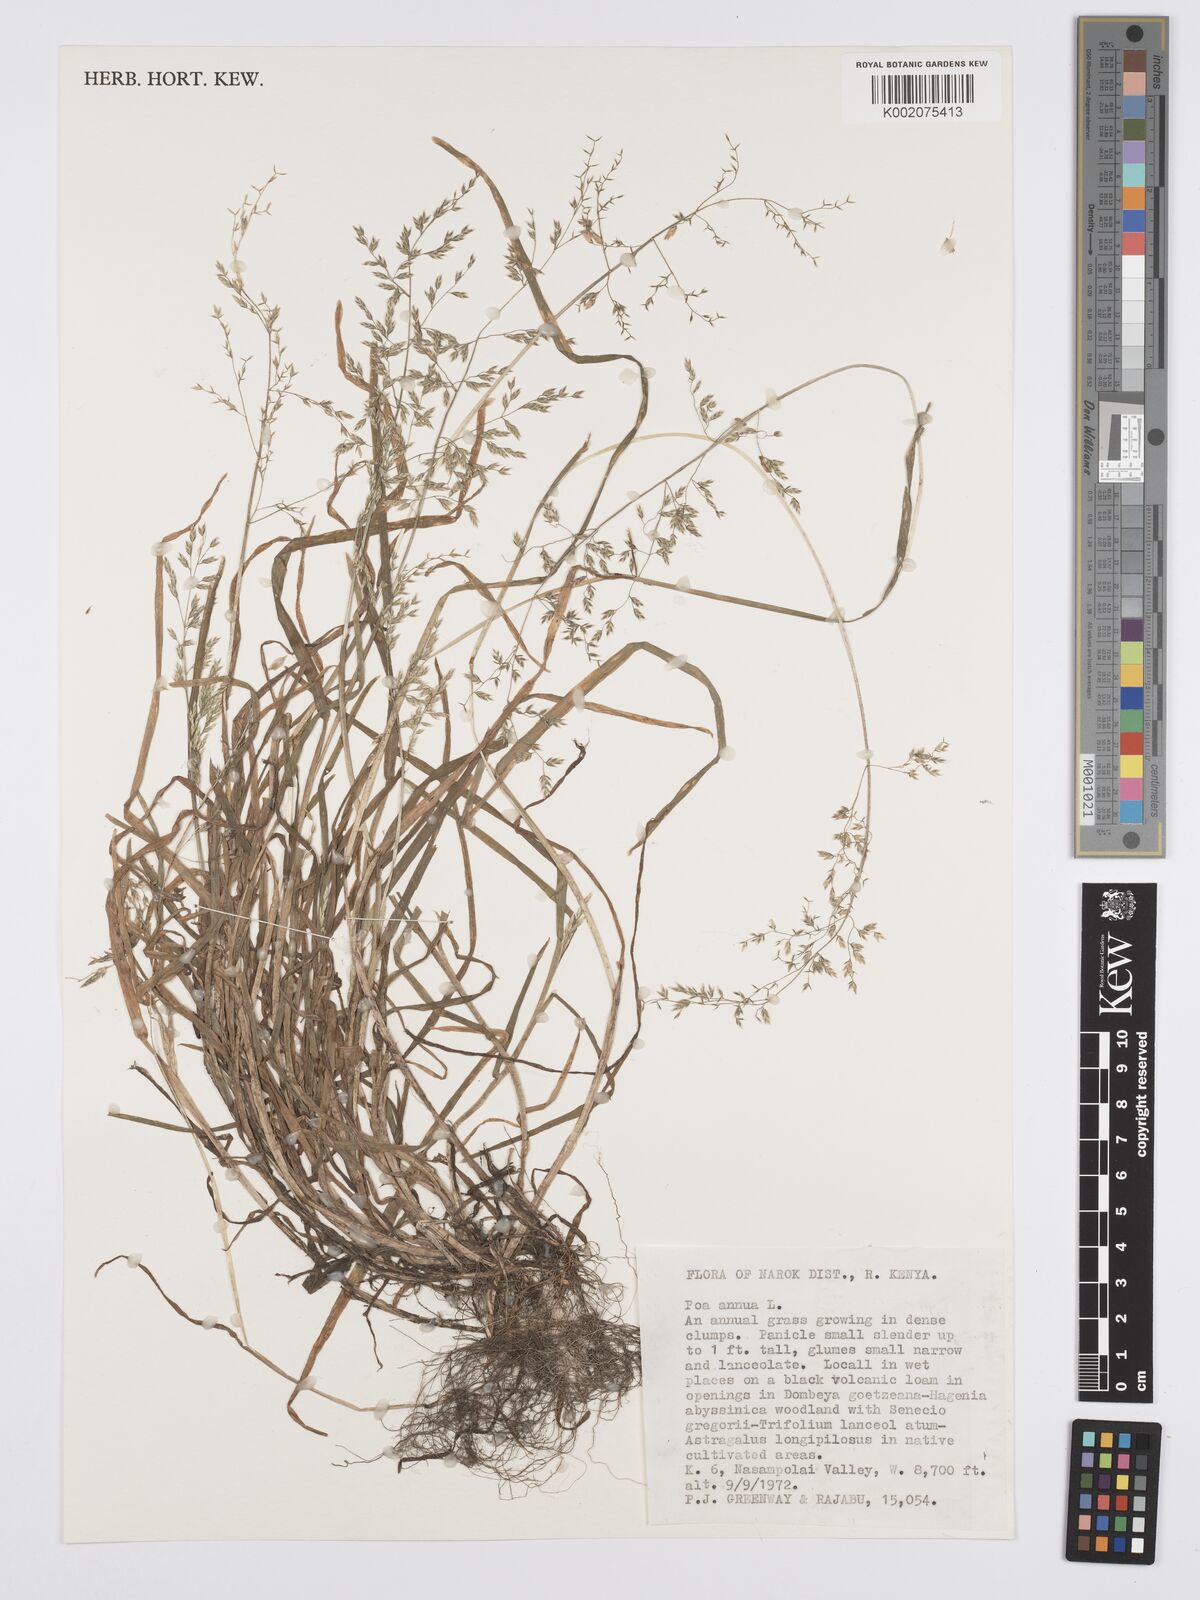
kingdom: Plantae
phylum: Tracheophyta
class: Liliopsida
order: Poales
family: Poaceae
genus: Poa
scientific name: Poa annua
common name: Annual bluegrass
